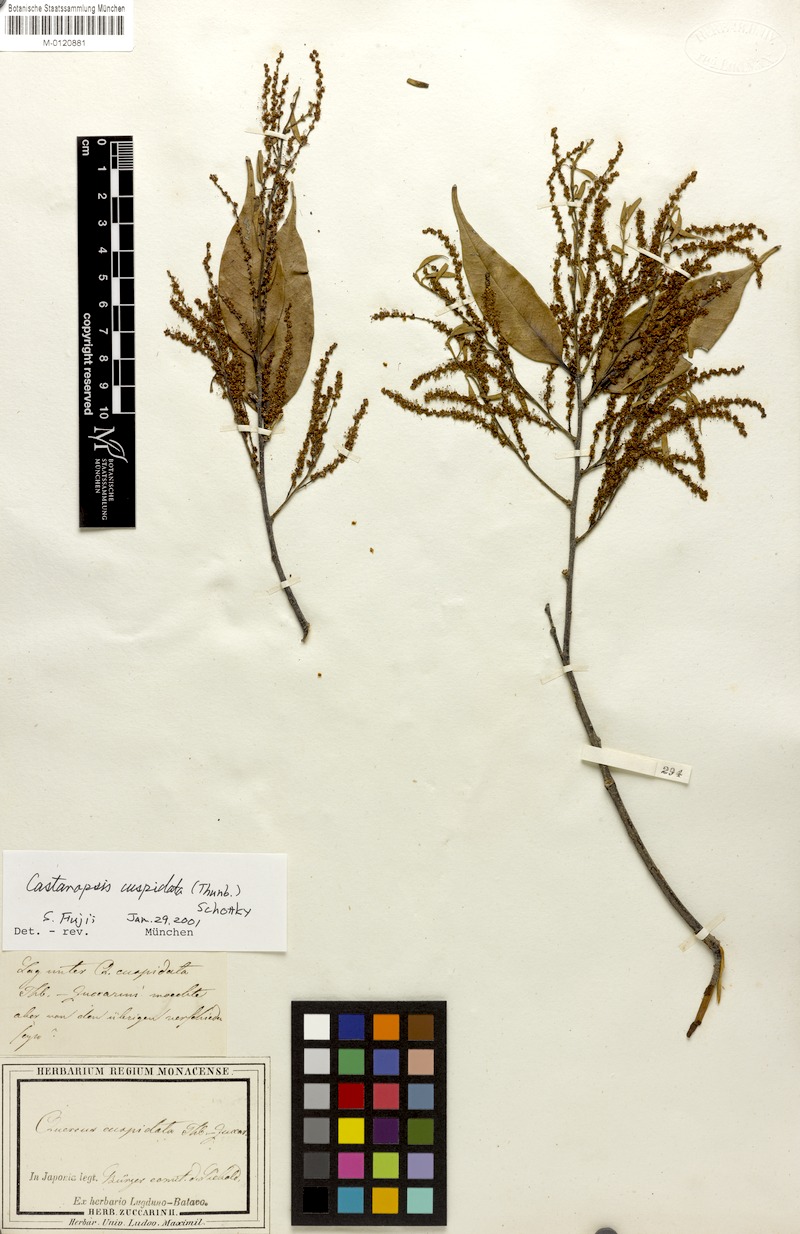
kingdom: Plantae
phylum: Tracheophyta
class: Magnoliopsida
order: Fagales
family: Fagaceae
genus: Castanopsis
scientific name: Castanopsis cuspidata
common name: Japanese chinquapin
